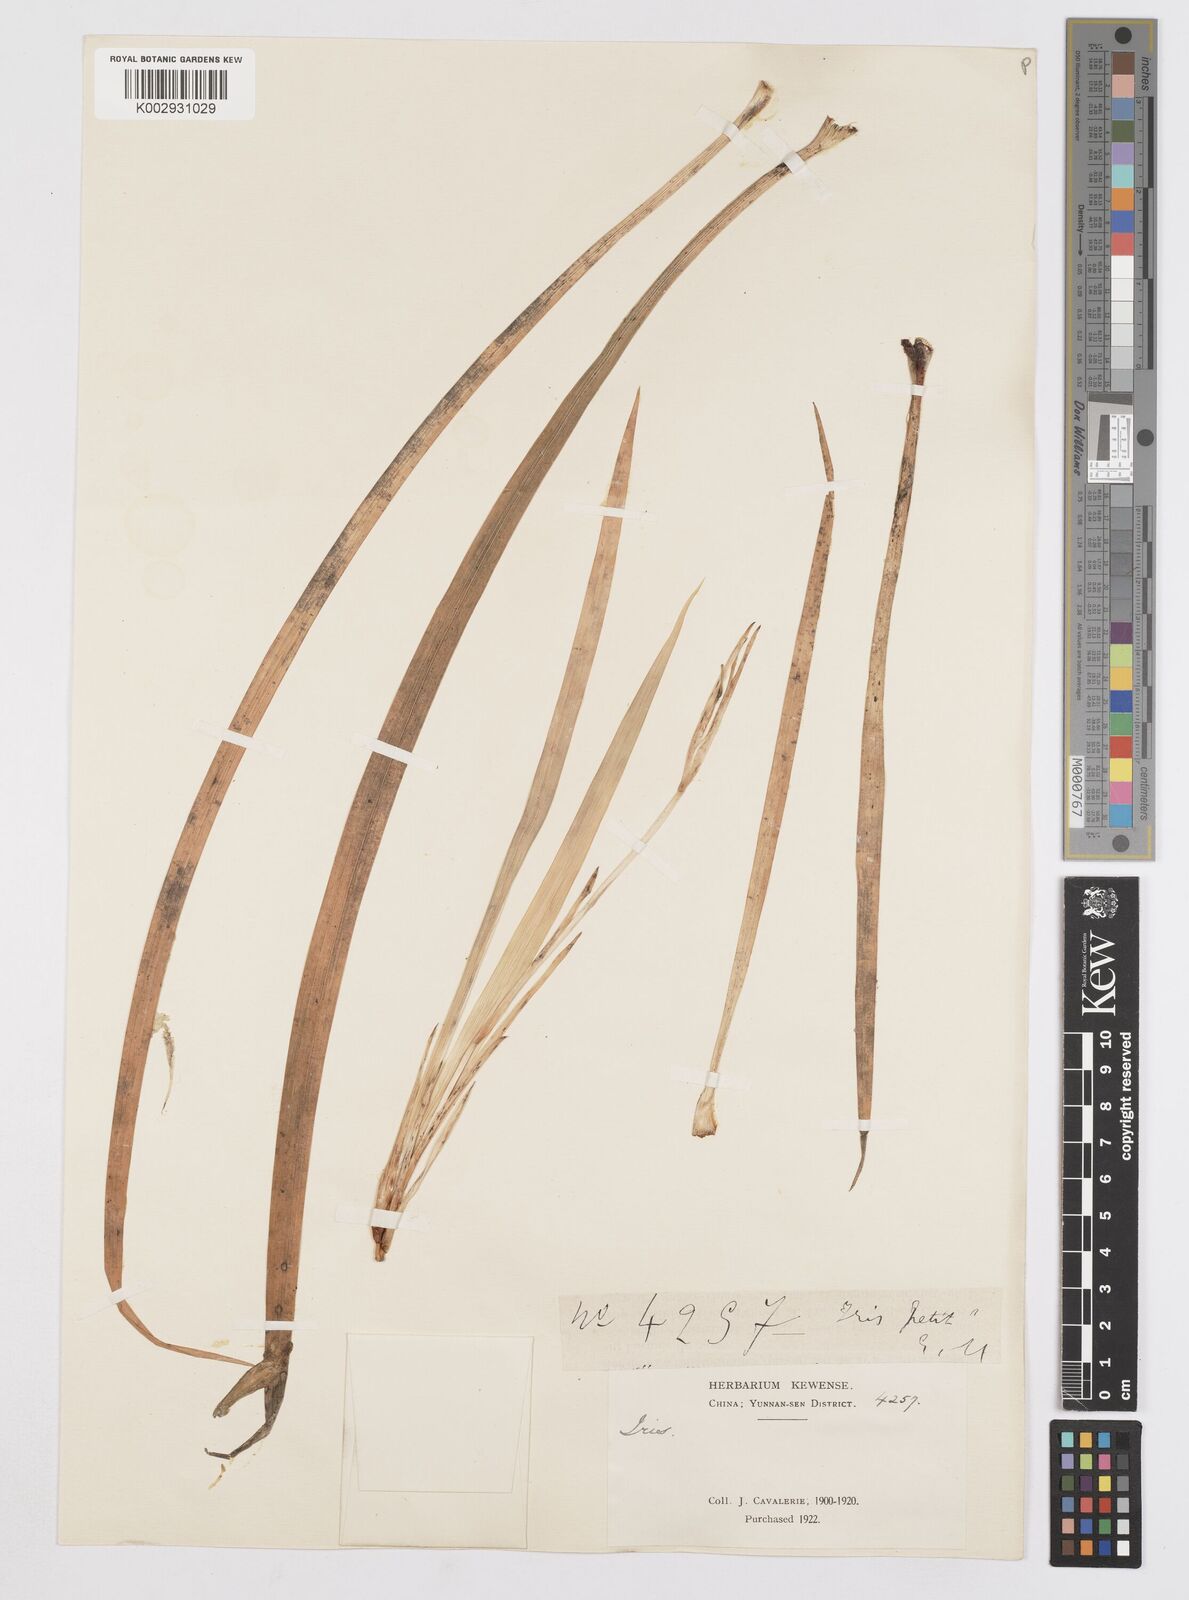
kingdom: Plantae
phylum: Tracheophyta
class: Liliopsida
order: Asparagales
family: Iridaceae
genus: Iris
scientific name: Iris
